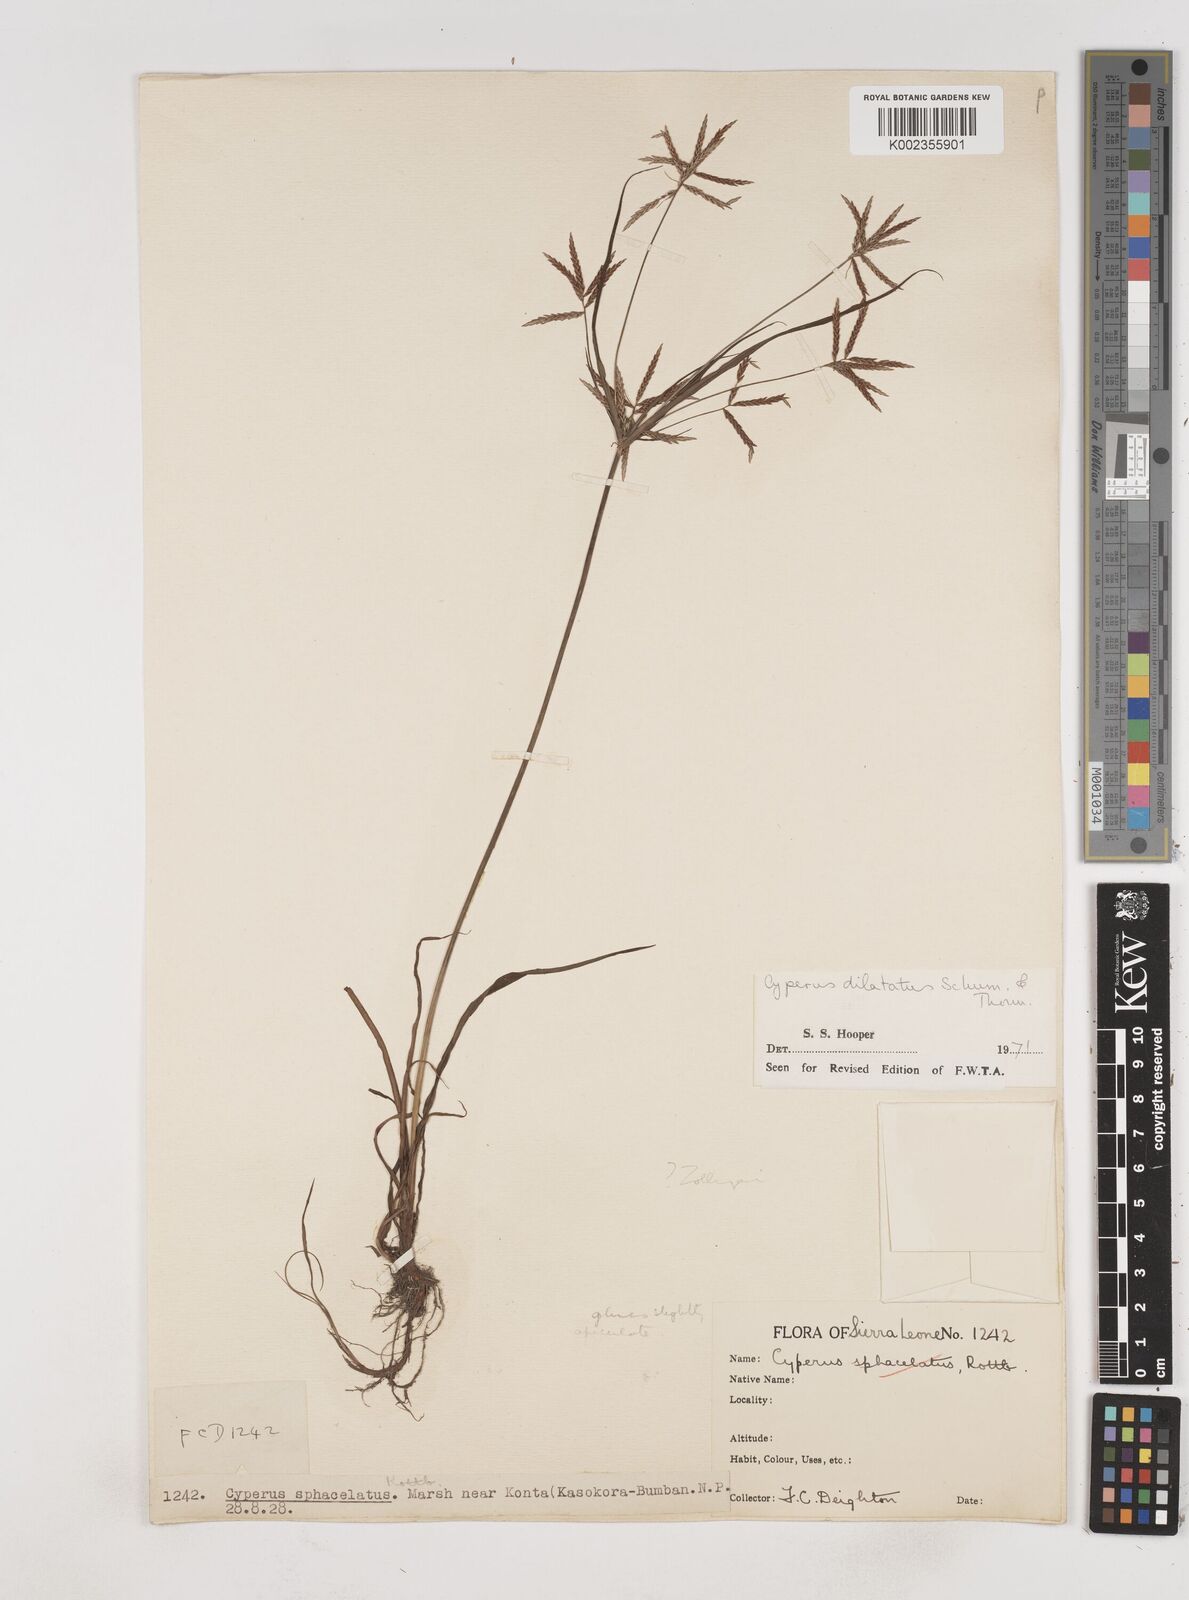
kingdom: Plantae
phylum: Tracheophyta
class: Liliopsida
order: Poales
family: Cyperaceae
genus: Cyperus
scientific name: Cyperus dilatatus
